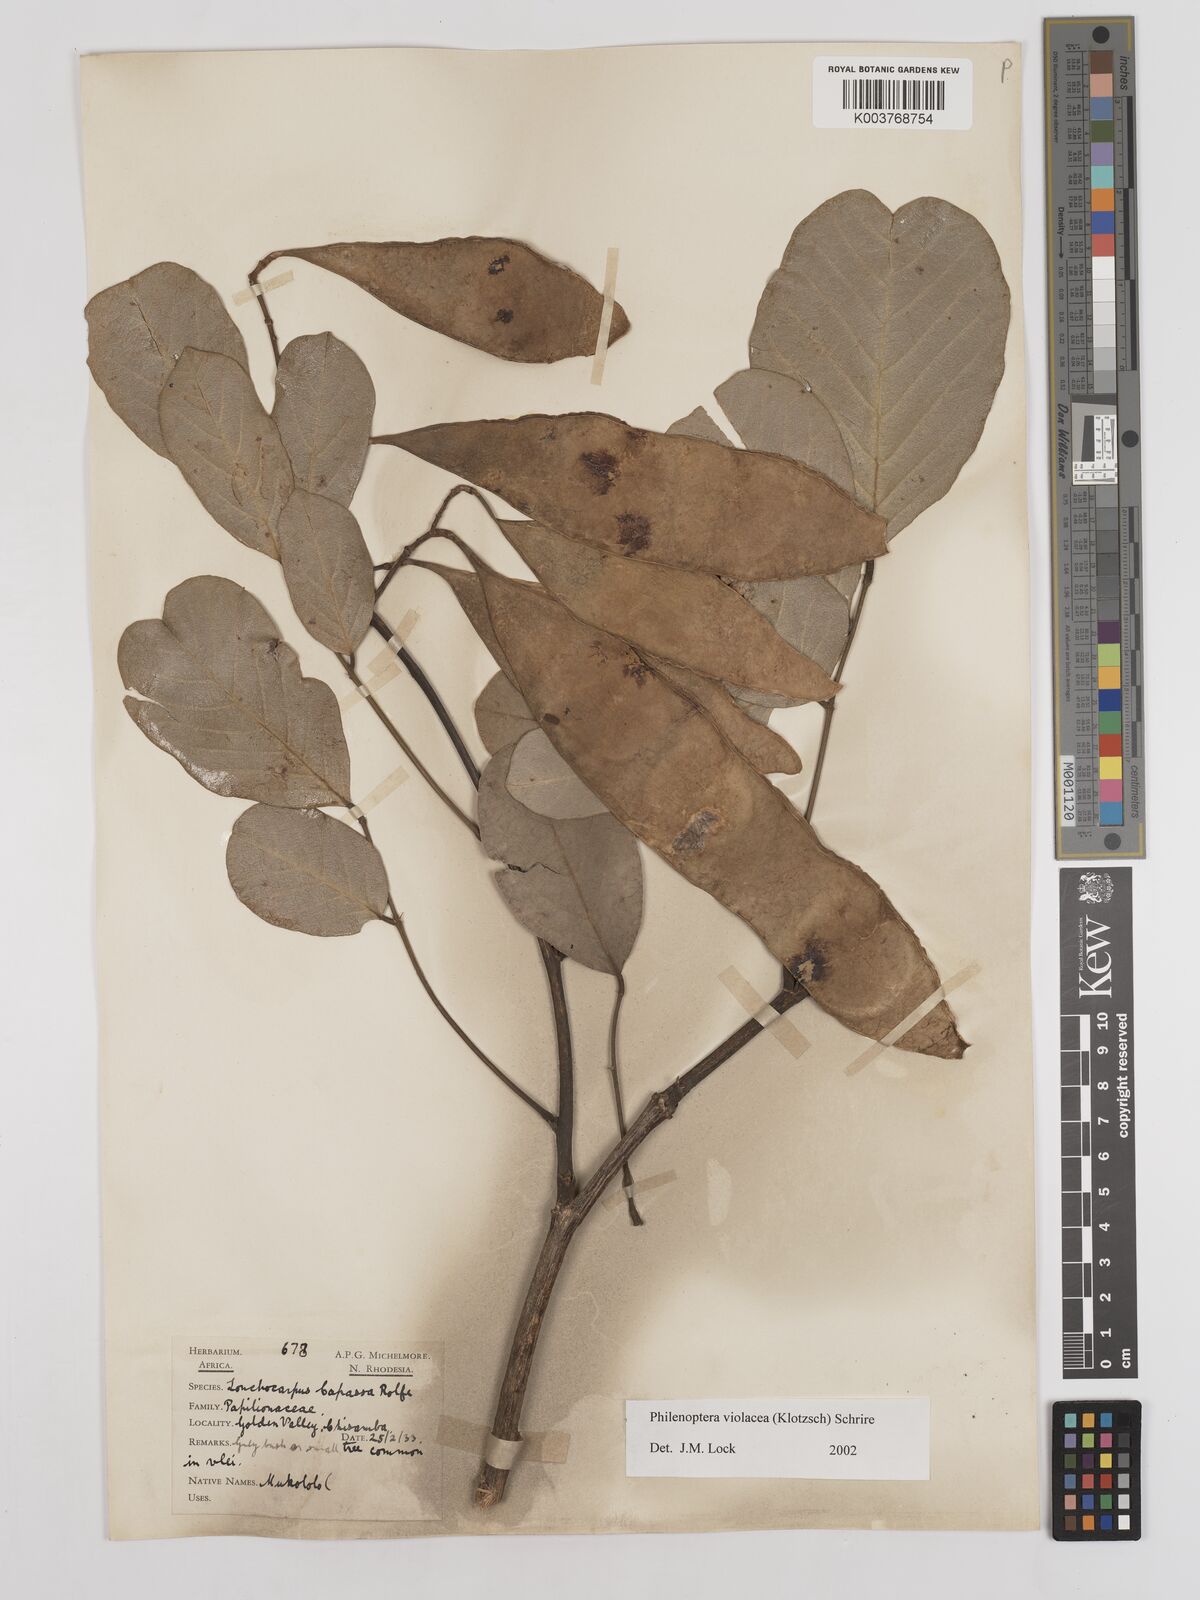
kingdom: Plantae
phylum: Tracheophyta
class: Magnoliopsida
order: Fabales
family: Fabaceae
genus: Philenoptera
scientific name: Philenoptera violacea
